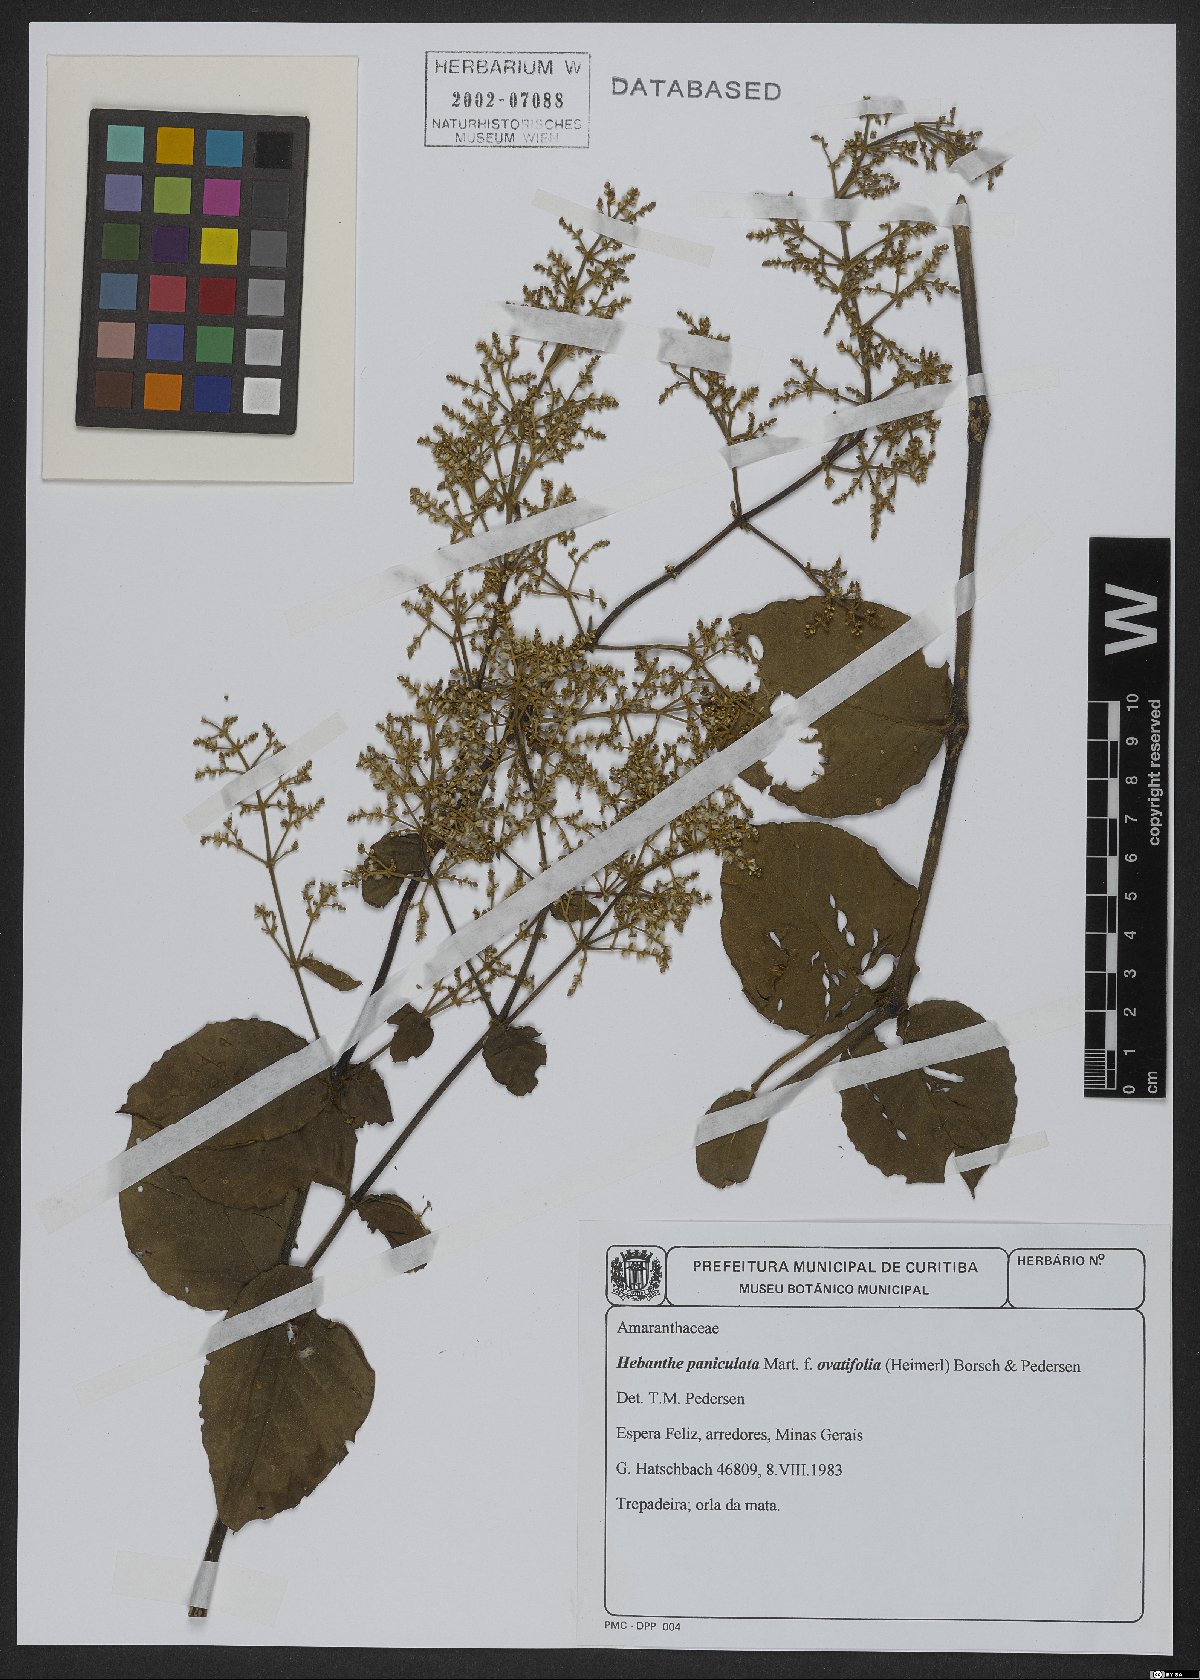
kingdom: Plantae
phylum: Tracheophyta
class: Magnoliopsida
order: Caryophyllales
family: Amaranthaceae
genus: Hebanthe
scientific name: Hebanthe erianthos
